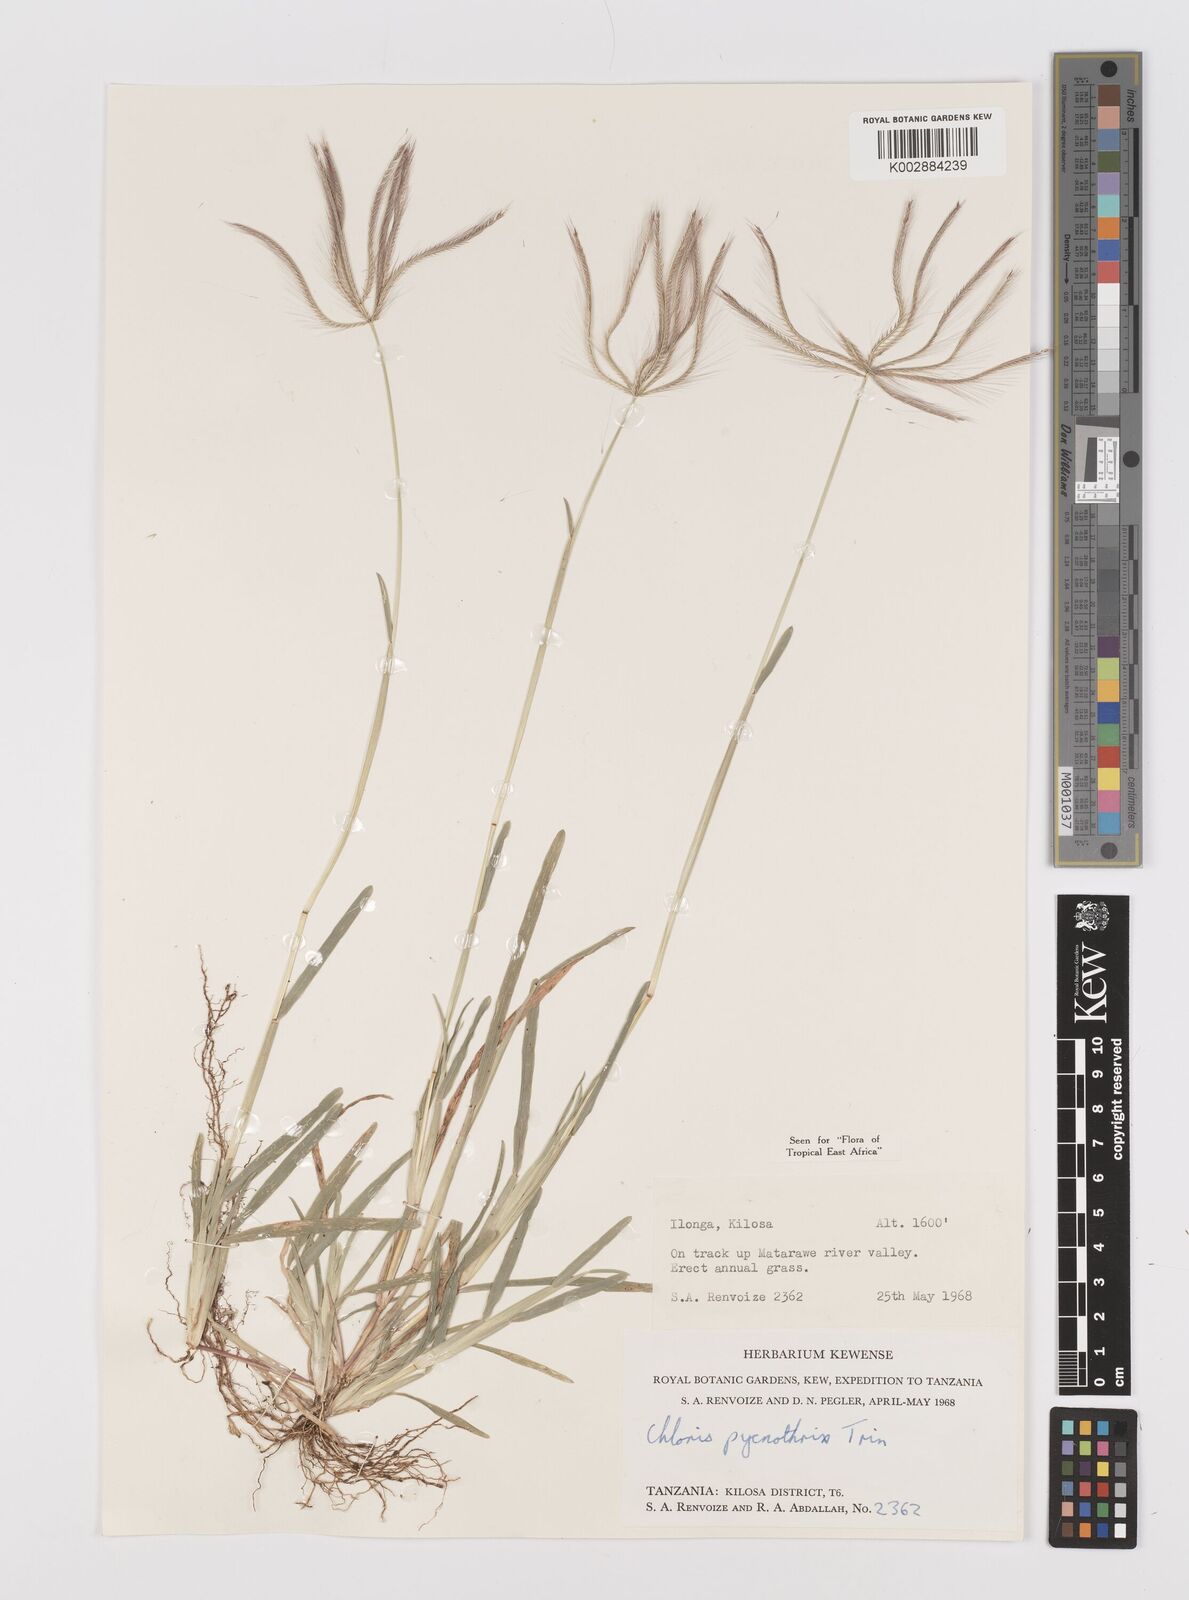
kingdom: Plantae
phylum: Tracheophyta
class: Liliopsida
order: Poales
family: Poaceae
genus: Chloris
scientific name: Chloris pycnothrix
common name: Spiderweb chloris
